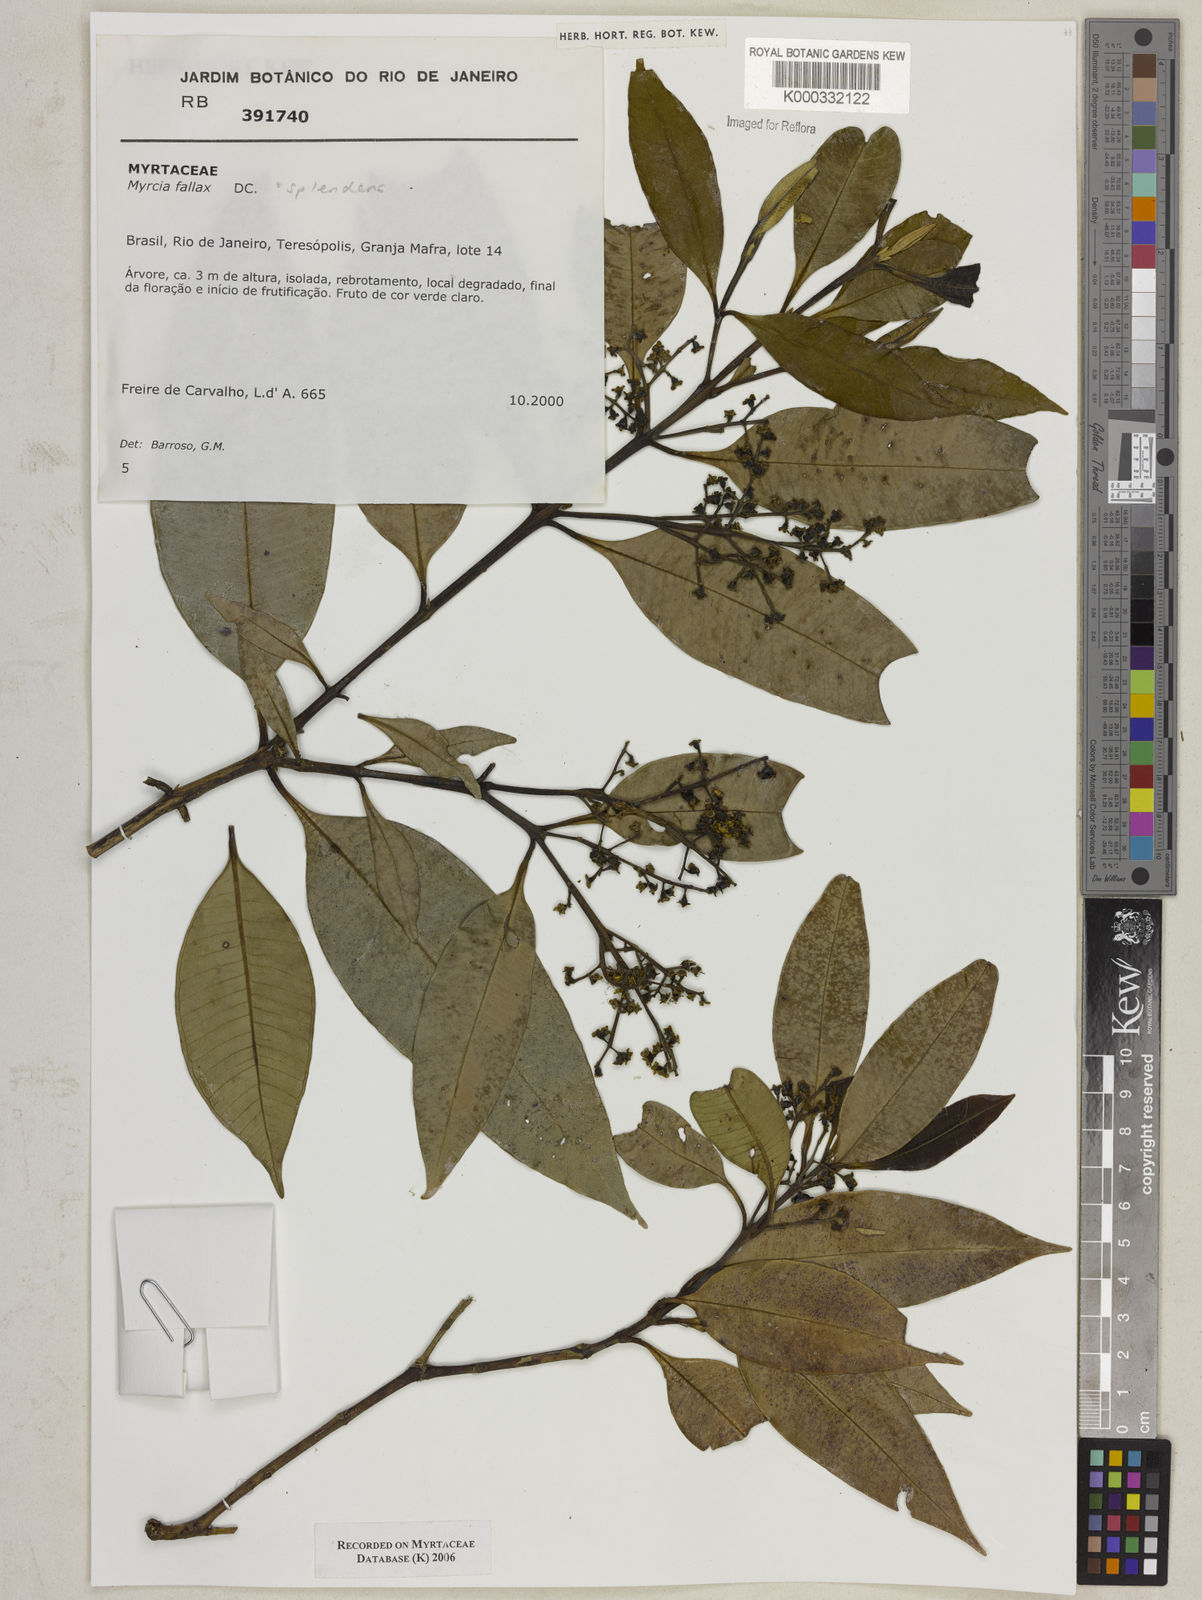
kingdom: Plantae
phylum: Tracheophyta
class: Magnoliopsida
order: Myrtales
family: Myrtaceae
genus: Myrcia
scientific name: Myrcia splendens
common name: Surinam cherry
